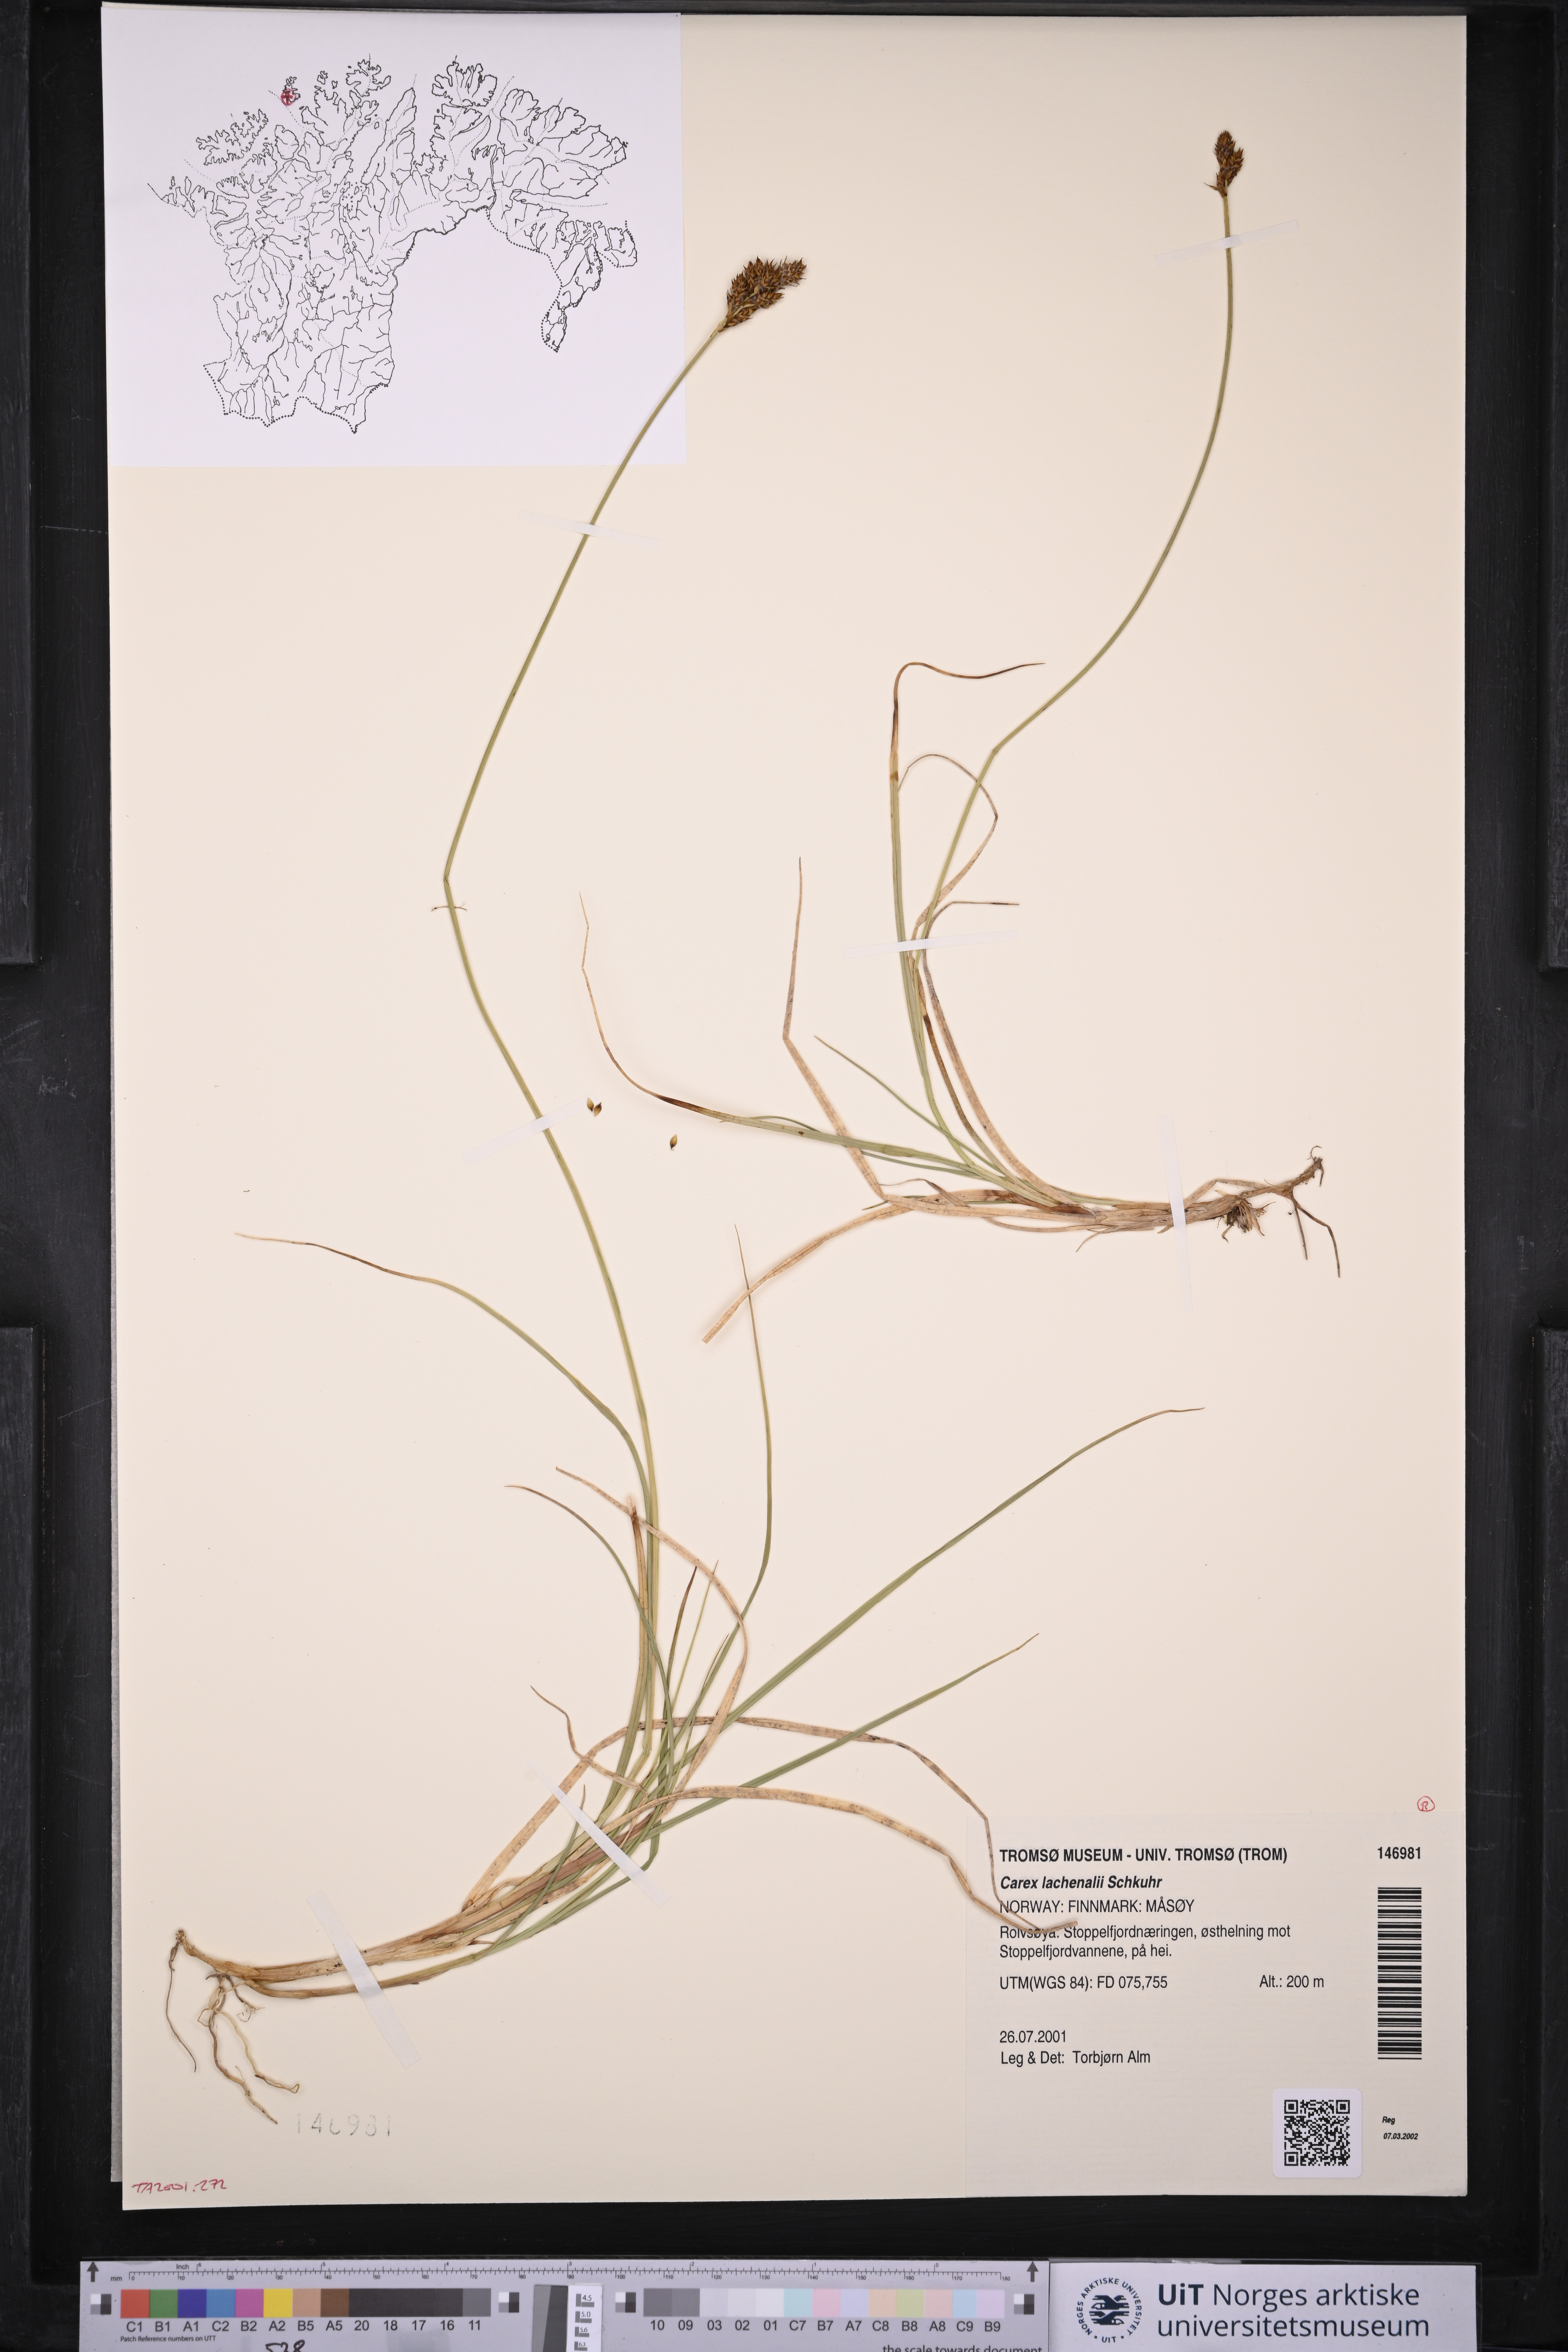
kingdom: Plantae
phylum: Tracheophyta
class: Liliopsida
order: Poales
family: Cyperaceae
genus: Carex
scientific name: Carex lachenalii
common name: Hare's-foot sedge
